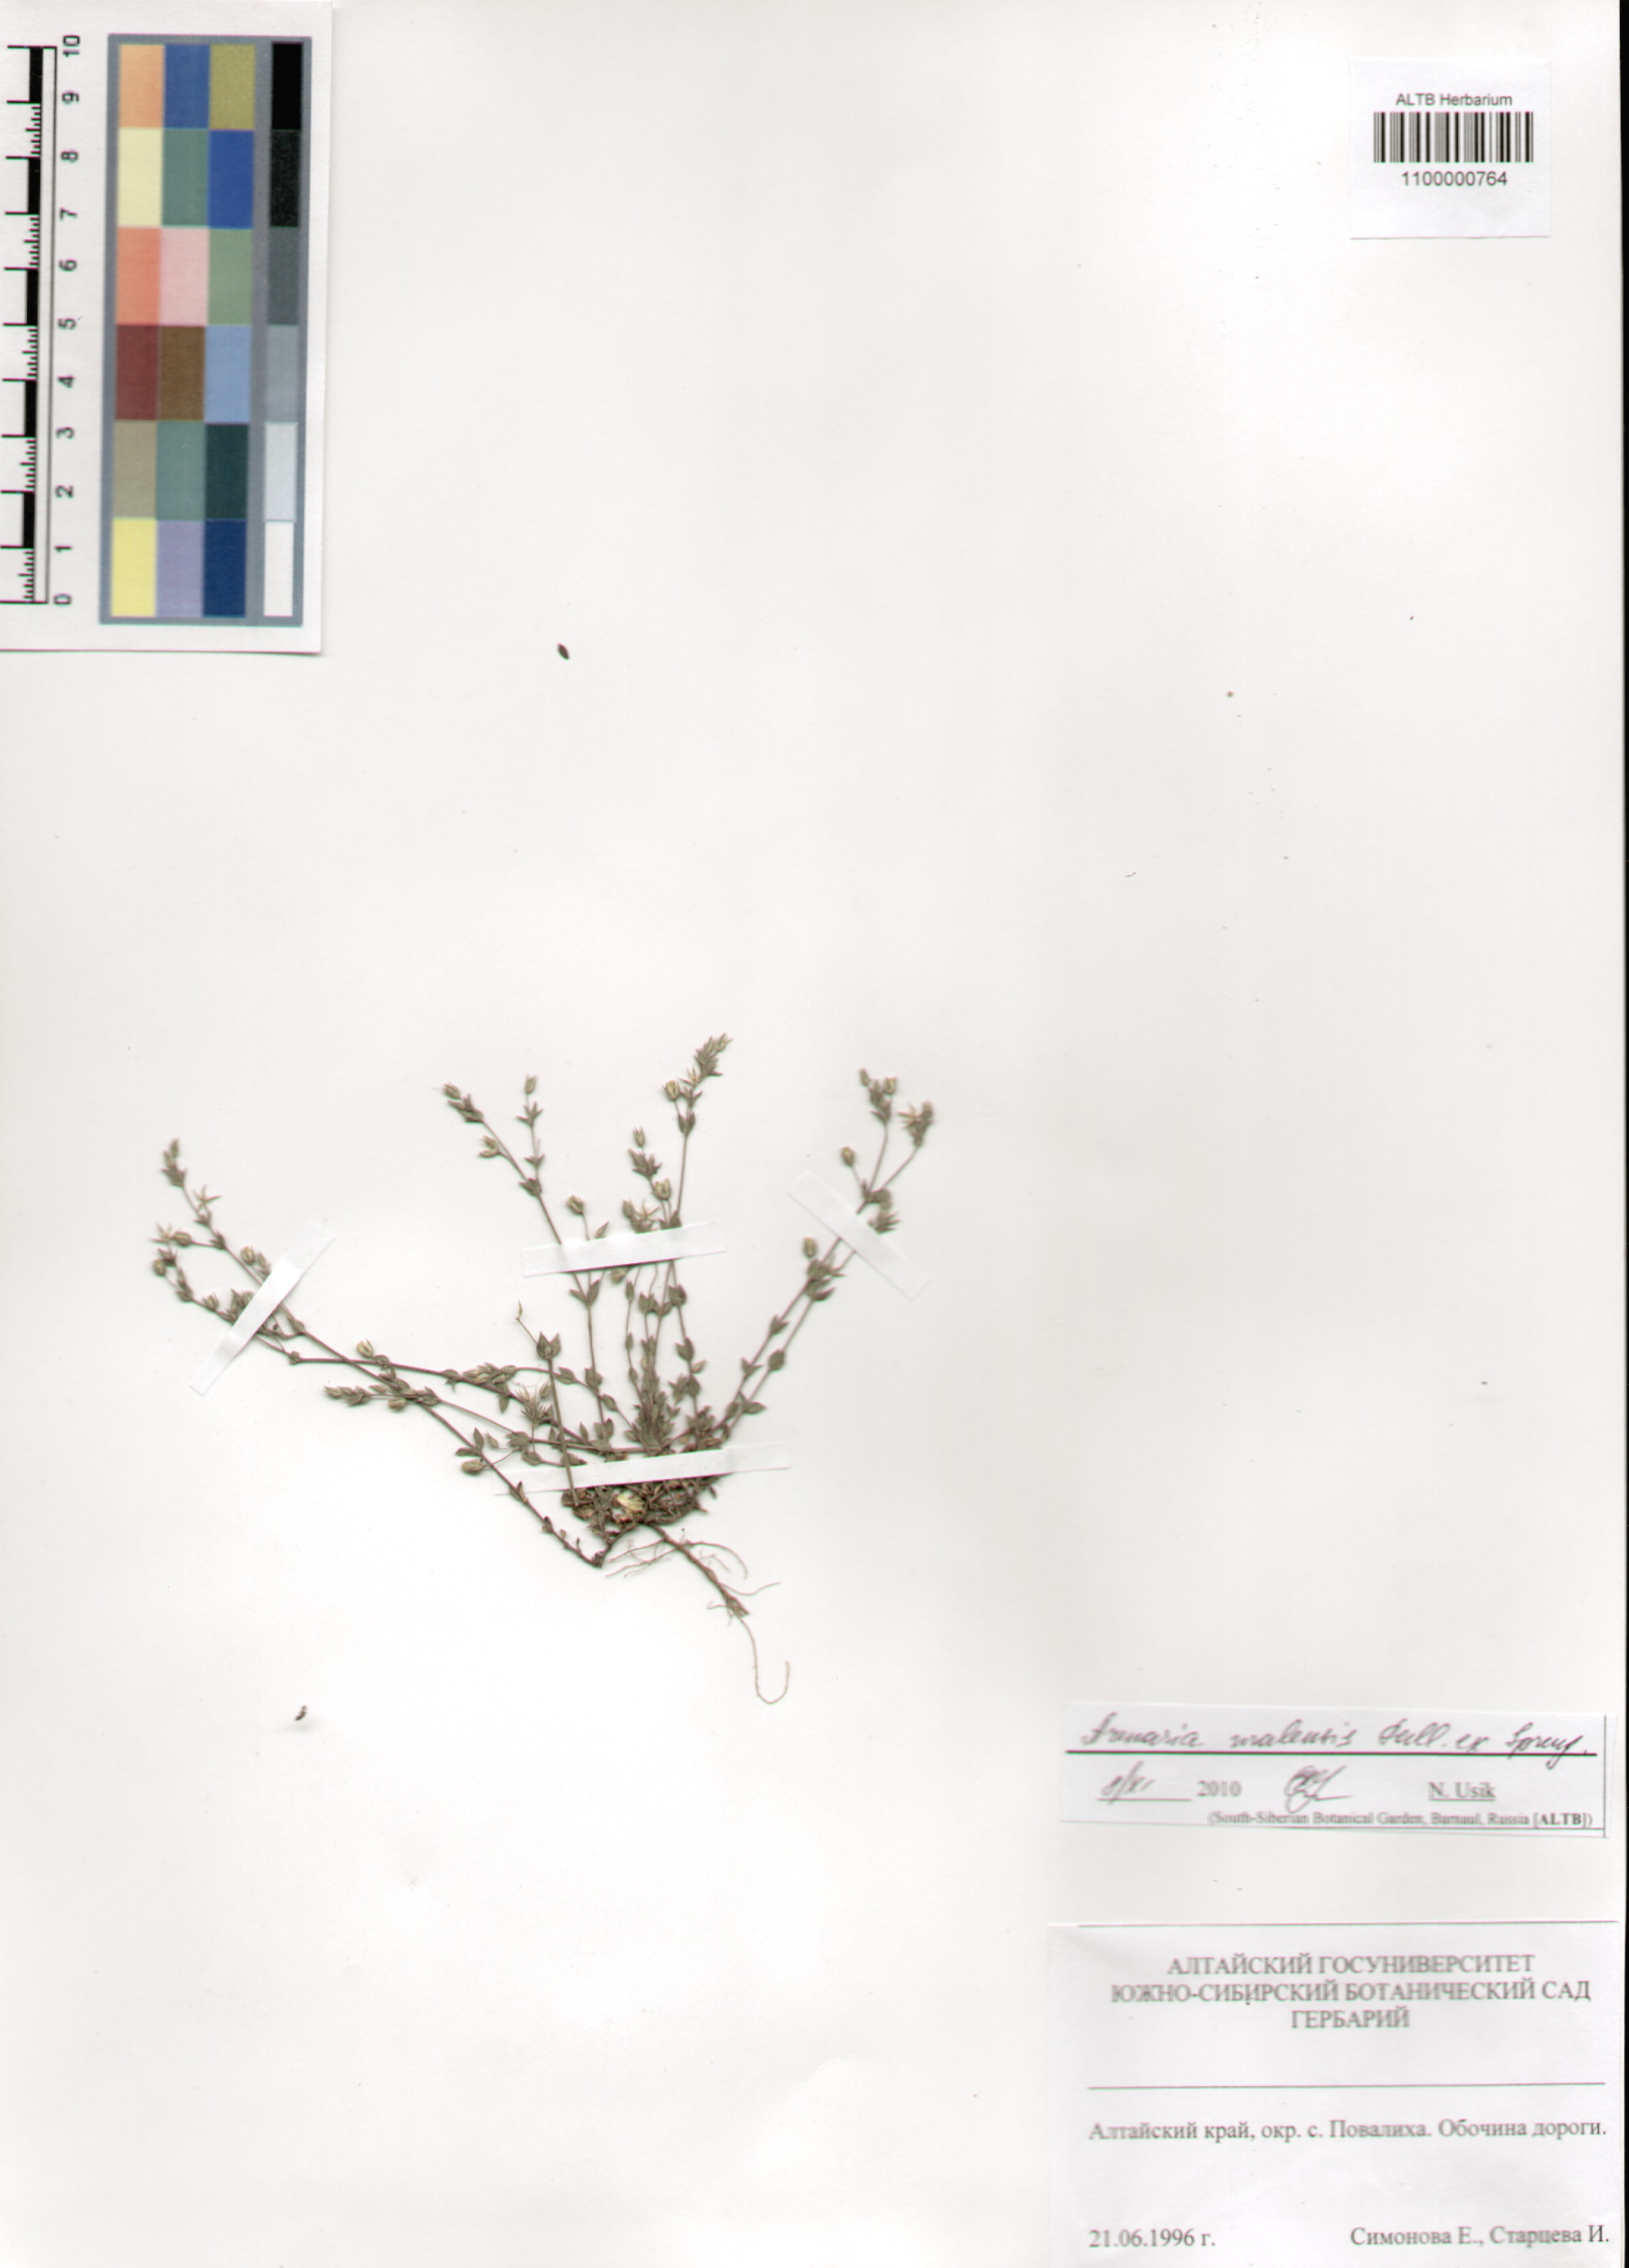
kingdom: Plantae
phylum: Tracheophyta
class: Magnoliopsida
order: Caryophyllales
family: Caryophyllaceae
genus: Arenaria
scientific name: Arenaria serpyllifolia
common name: Thyme-leaved sandwort
